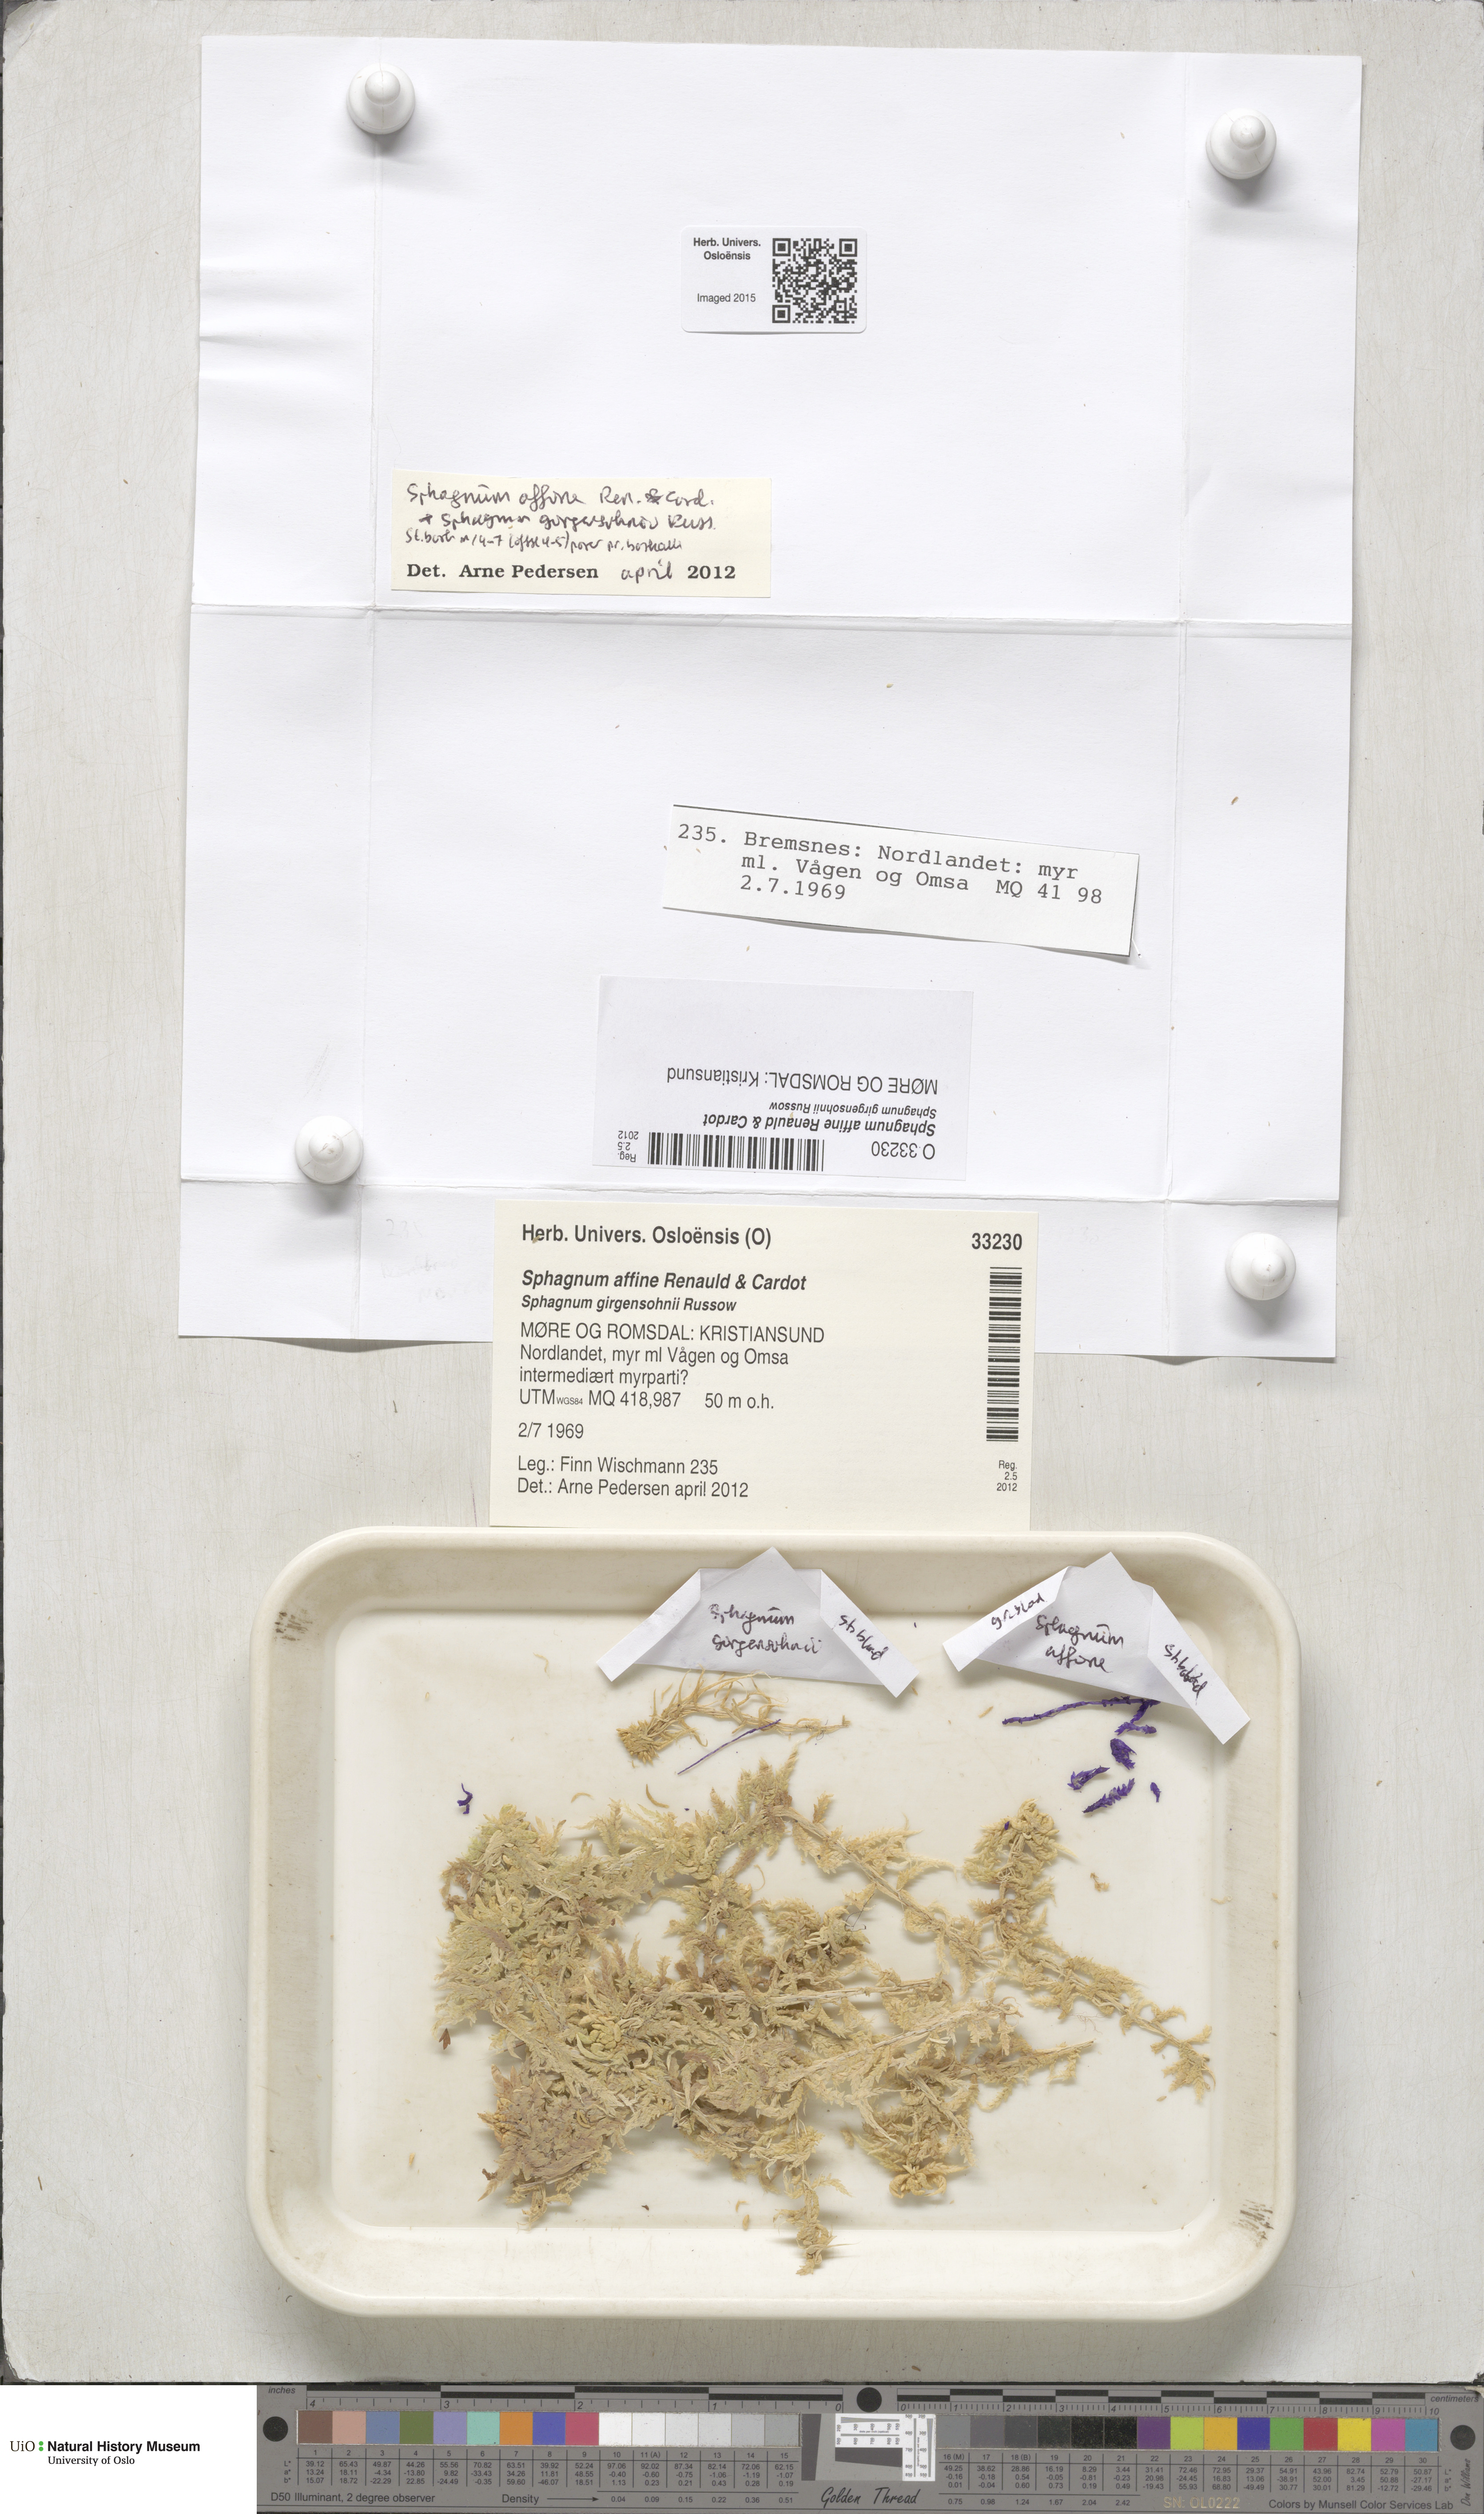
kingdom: Plantae
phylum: Bryophyta
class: Sphagnopsida
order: Sphagnales
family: Sphagnaceae
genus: Sphagnum
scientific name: Sphagnum affine
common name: Imbricate peat moss
